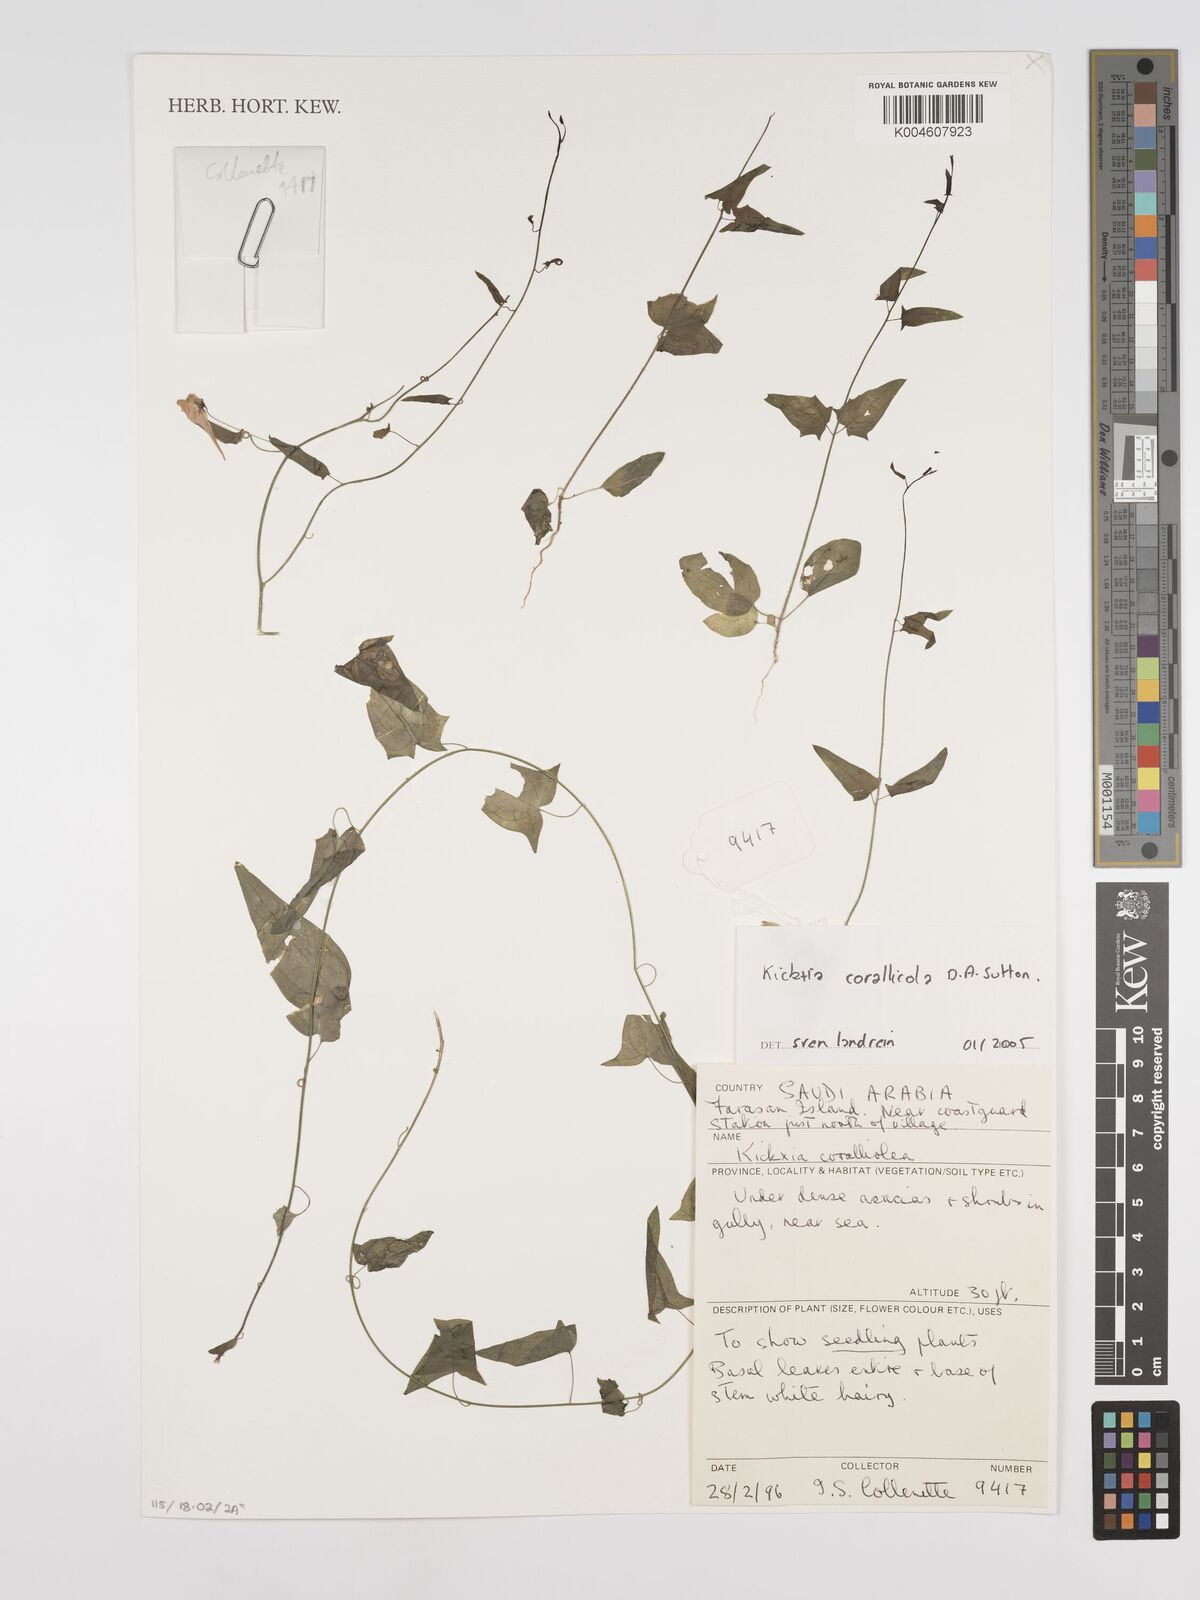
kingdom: Plantae
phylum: Tracheophyta
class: Magnoliopsida
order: Lamiales
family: Plantaginaceae
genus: Kickxia
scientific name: Kickxia corallicola
